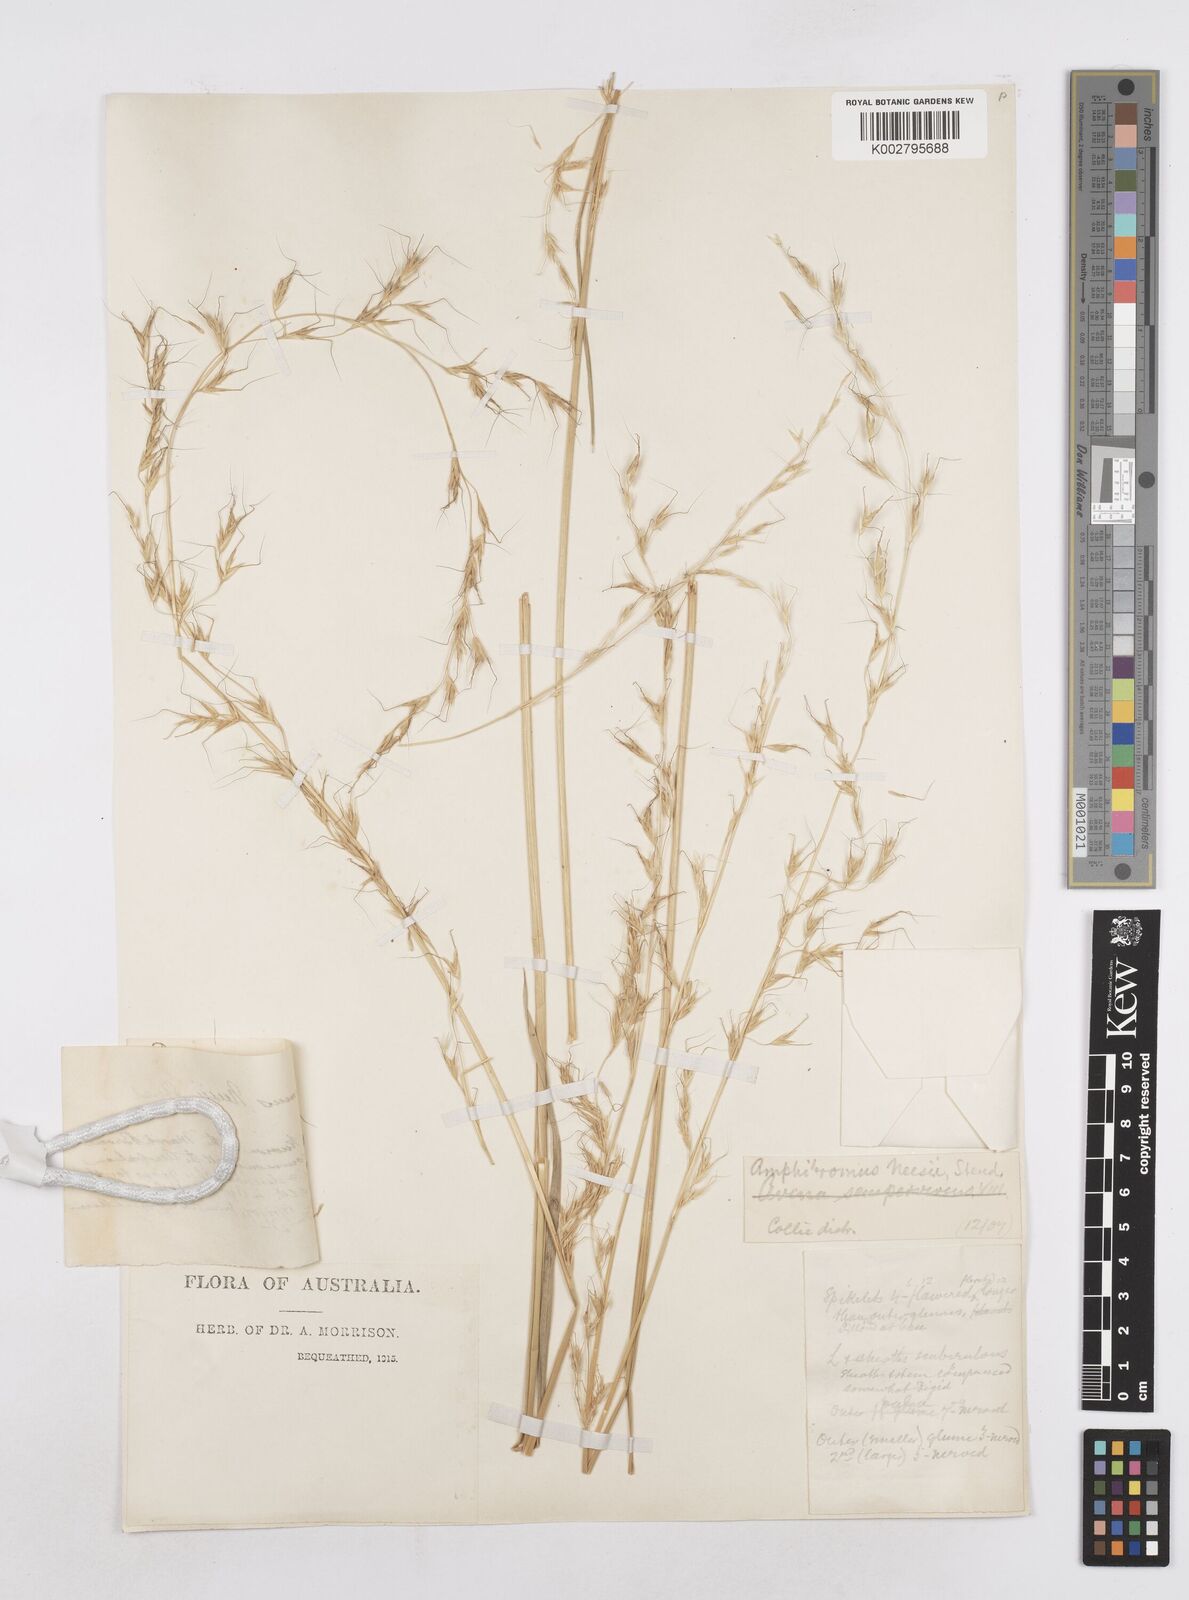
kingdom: Plantae
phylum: Tracheophyta
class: Liliopsida
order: Poales
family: Poaceae
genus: Amphibromus
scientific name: Amphibromus neesii
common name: Australian wallaby grass
